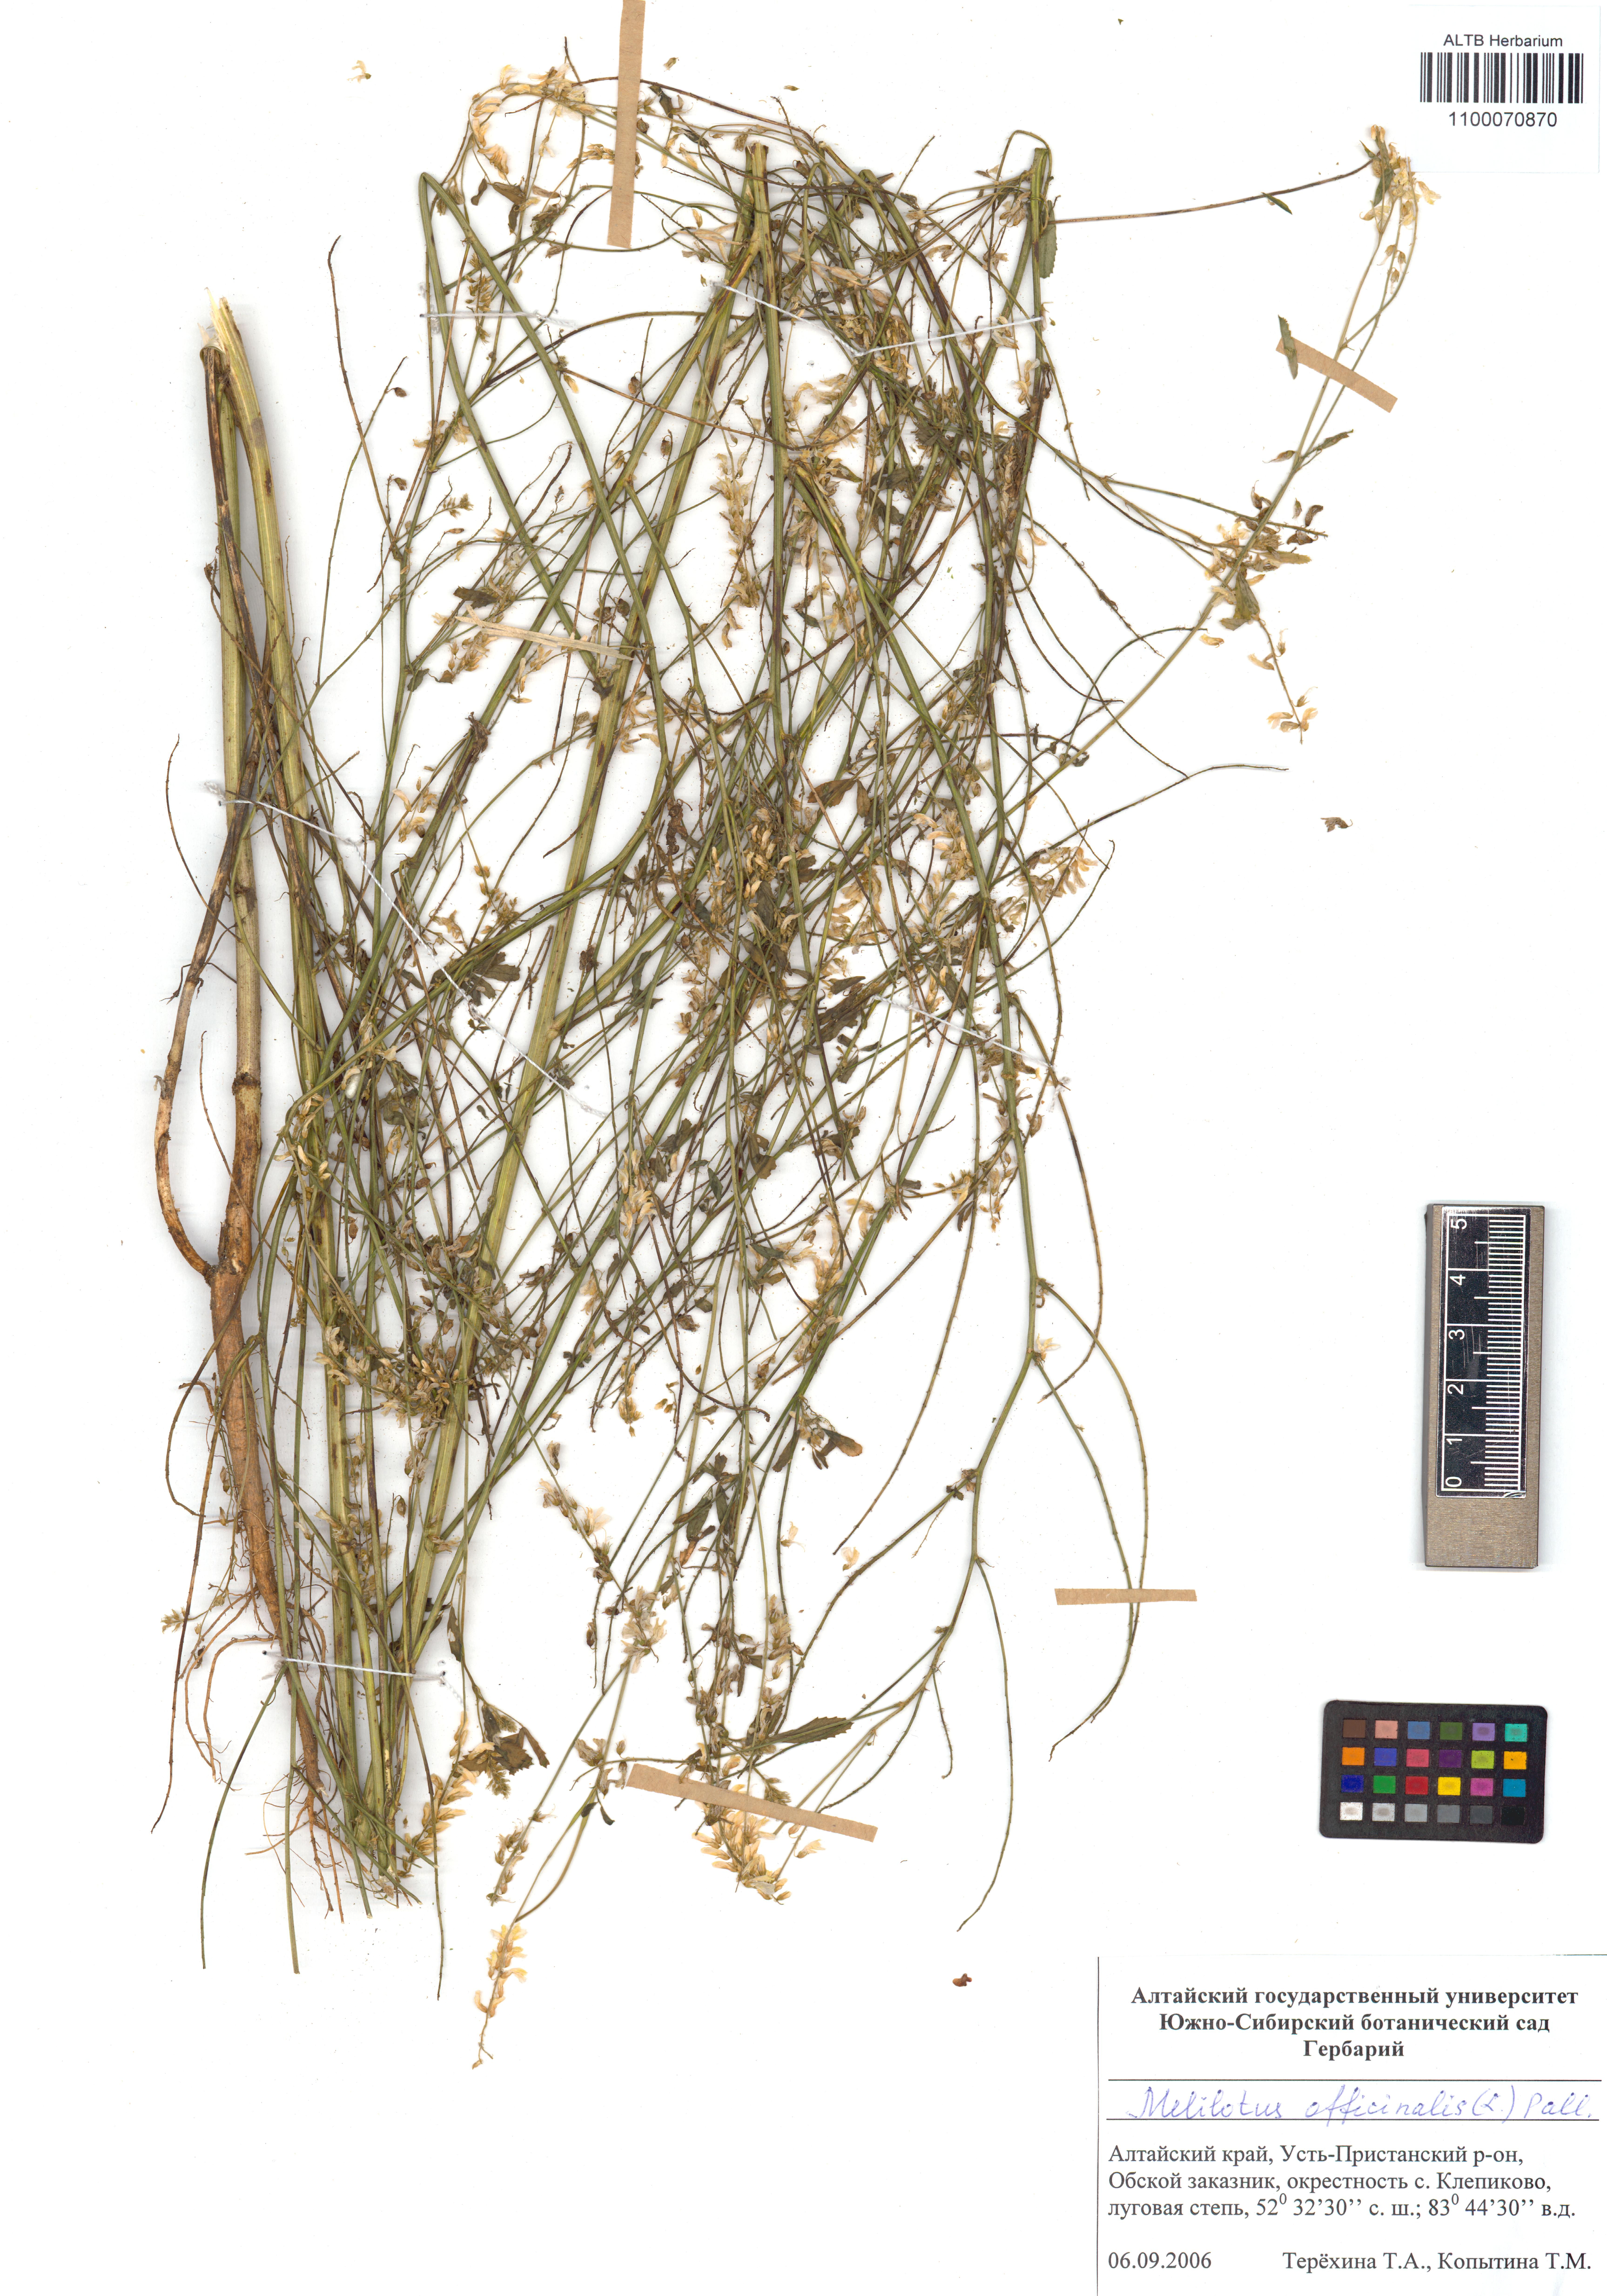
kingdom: Plantae
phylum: Tracheophyta
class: Magnoliopsida
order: Fabales
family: Fabaceae
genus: Melilotus
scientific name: Melilotus officinalis
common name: Sweetclover
